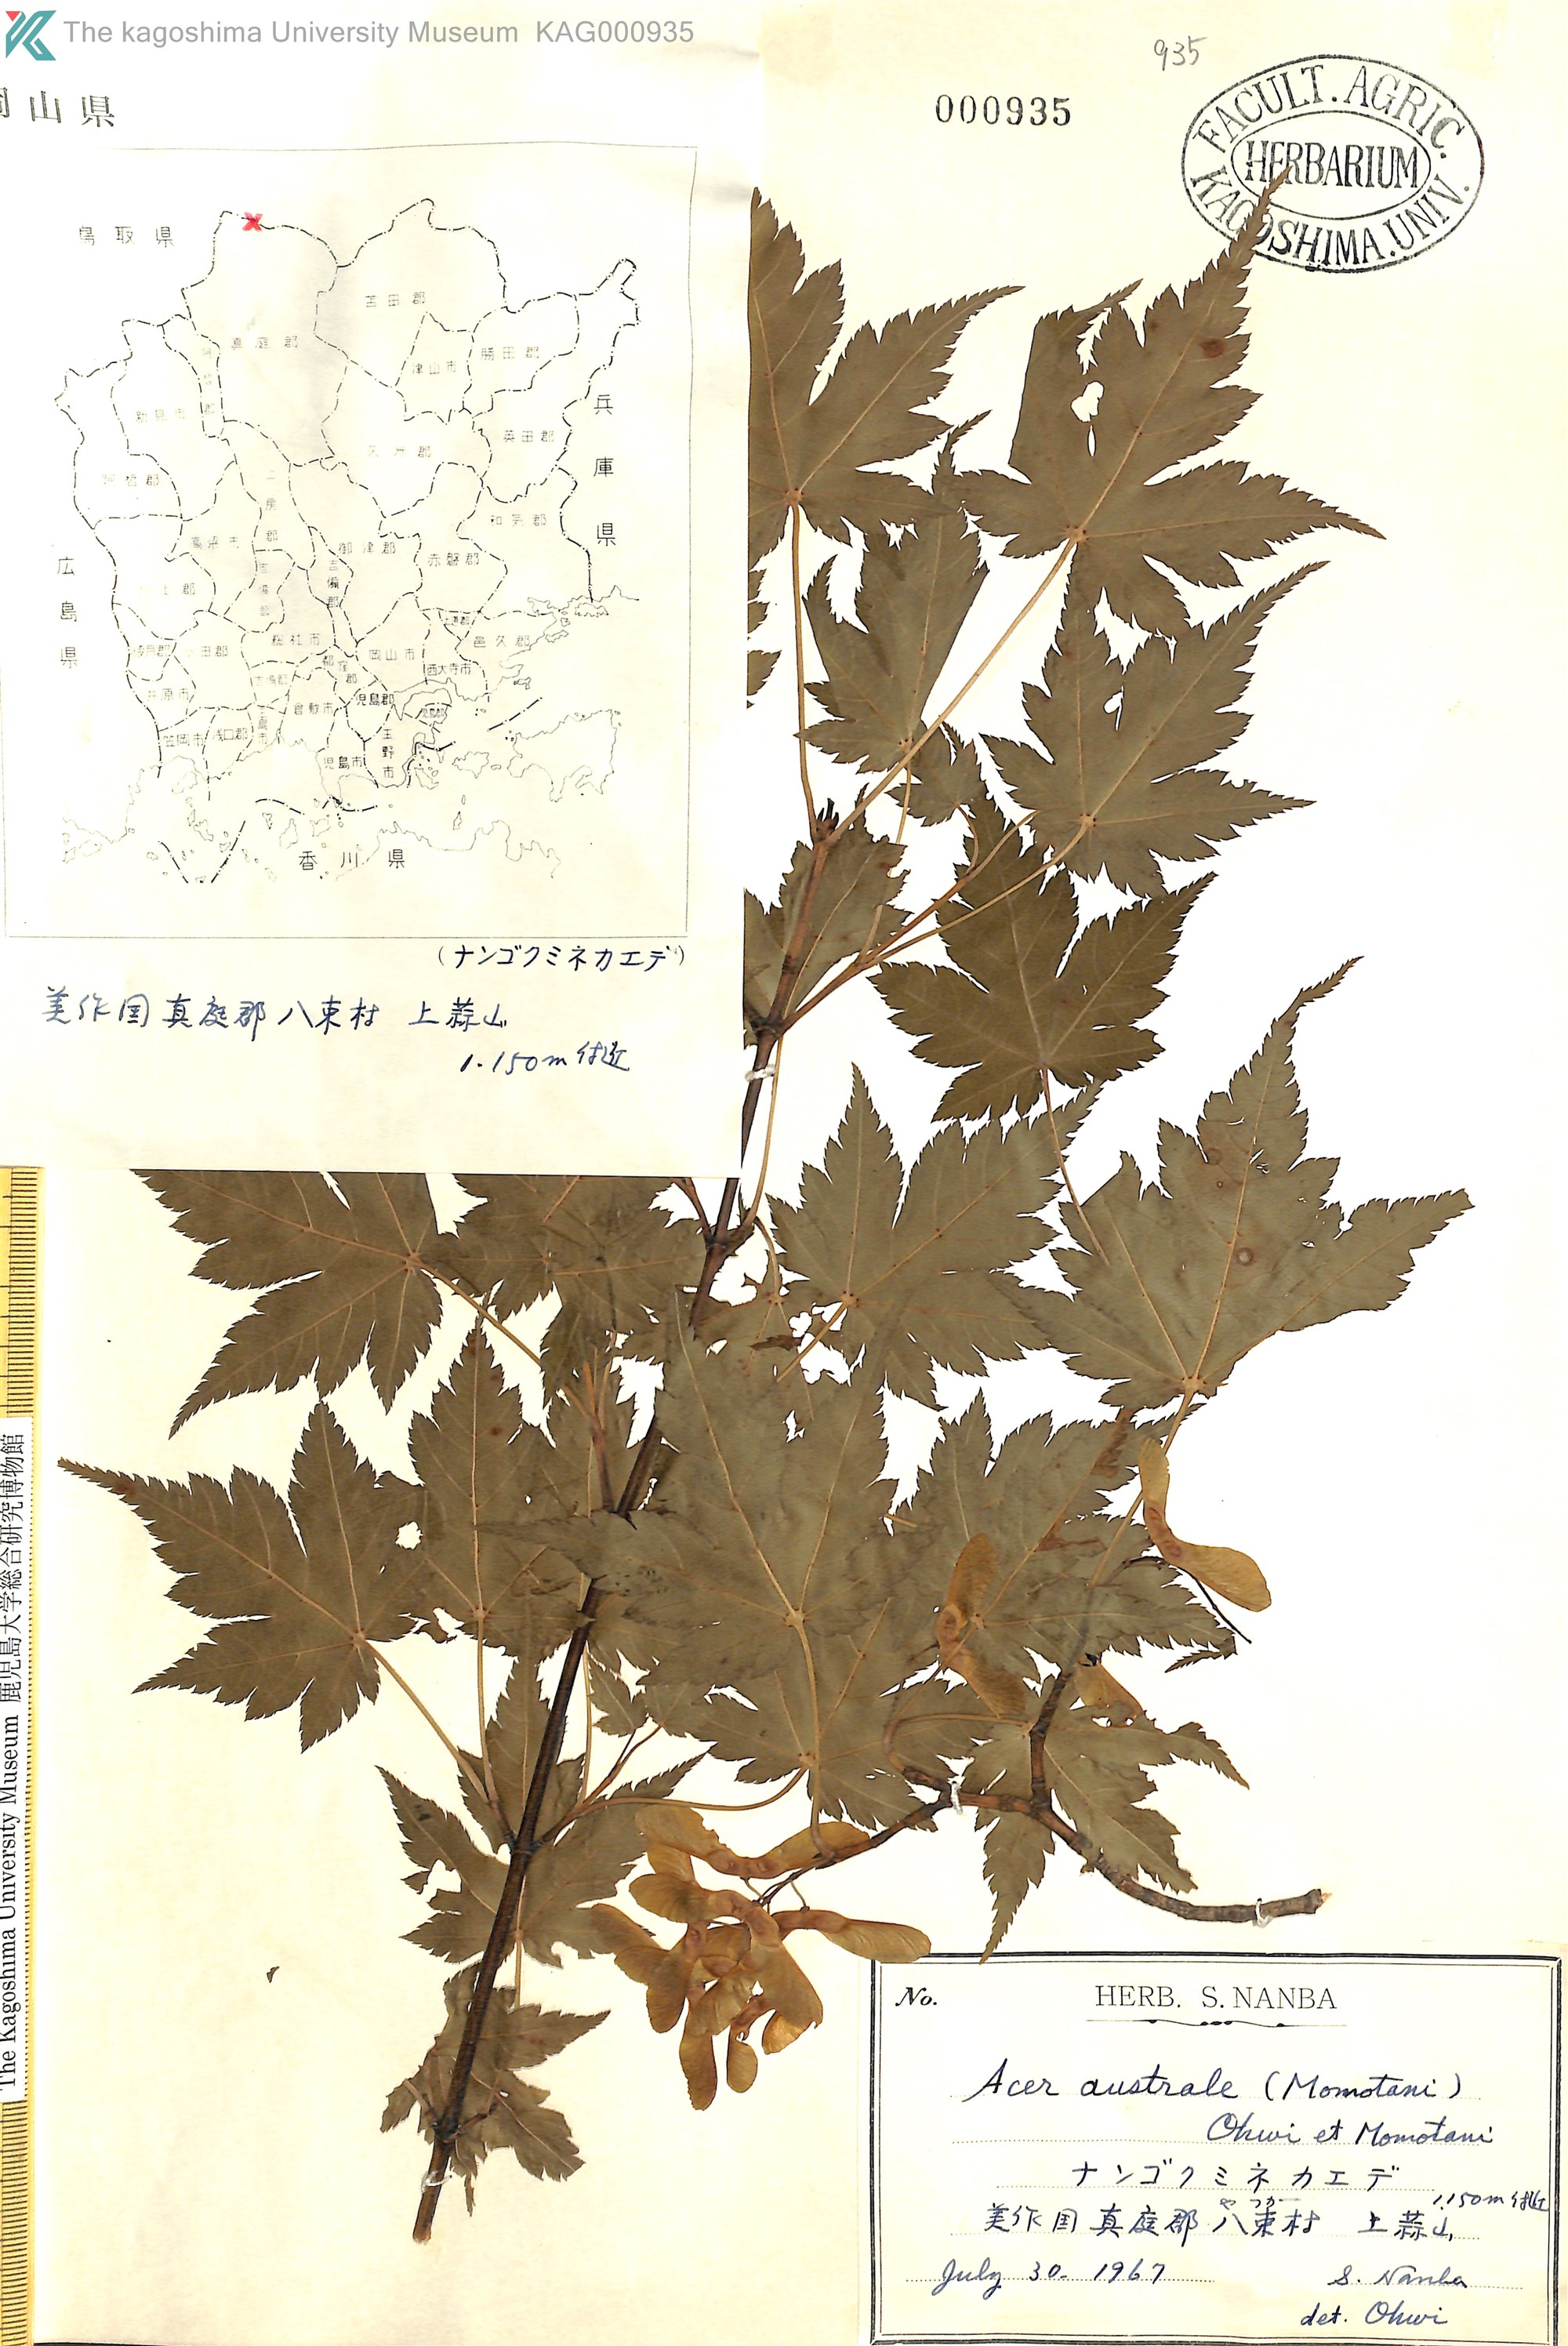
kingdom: Plantae
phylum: Tracheophyta
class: Magnoliopsida
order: Sapindales
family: Sapindaceae
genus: Acer
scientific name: Acer tschonoskii
